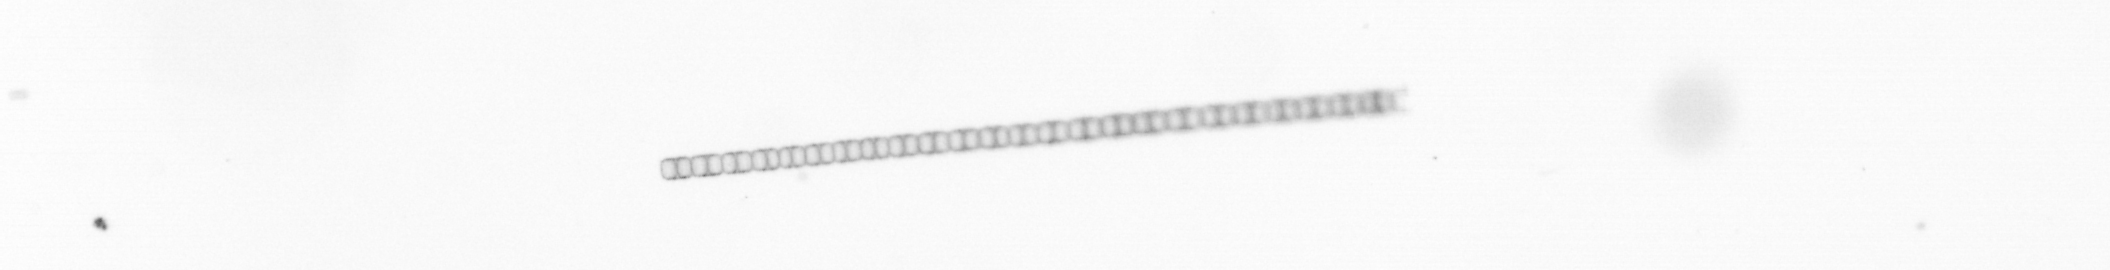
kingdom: Chromista
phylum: Ochrophyta
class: Bacillariophyceae
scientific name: Bacillariophyceae
